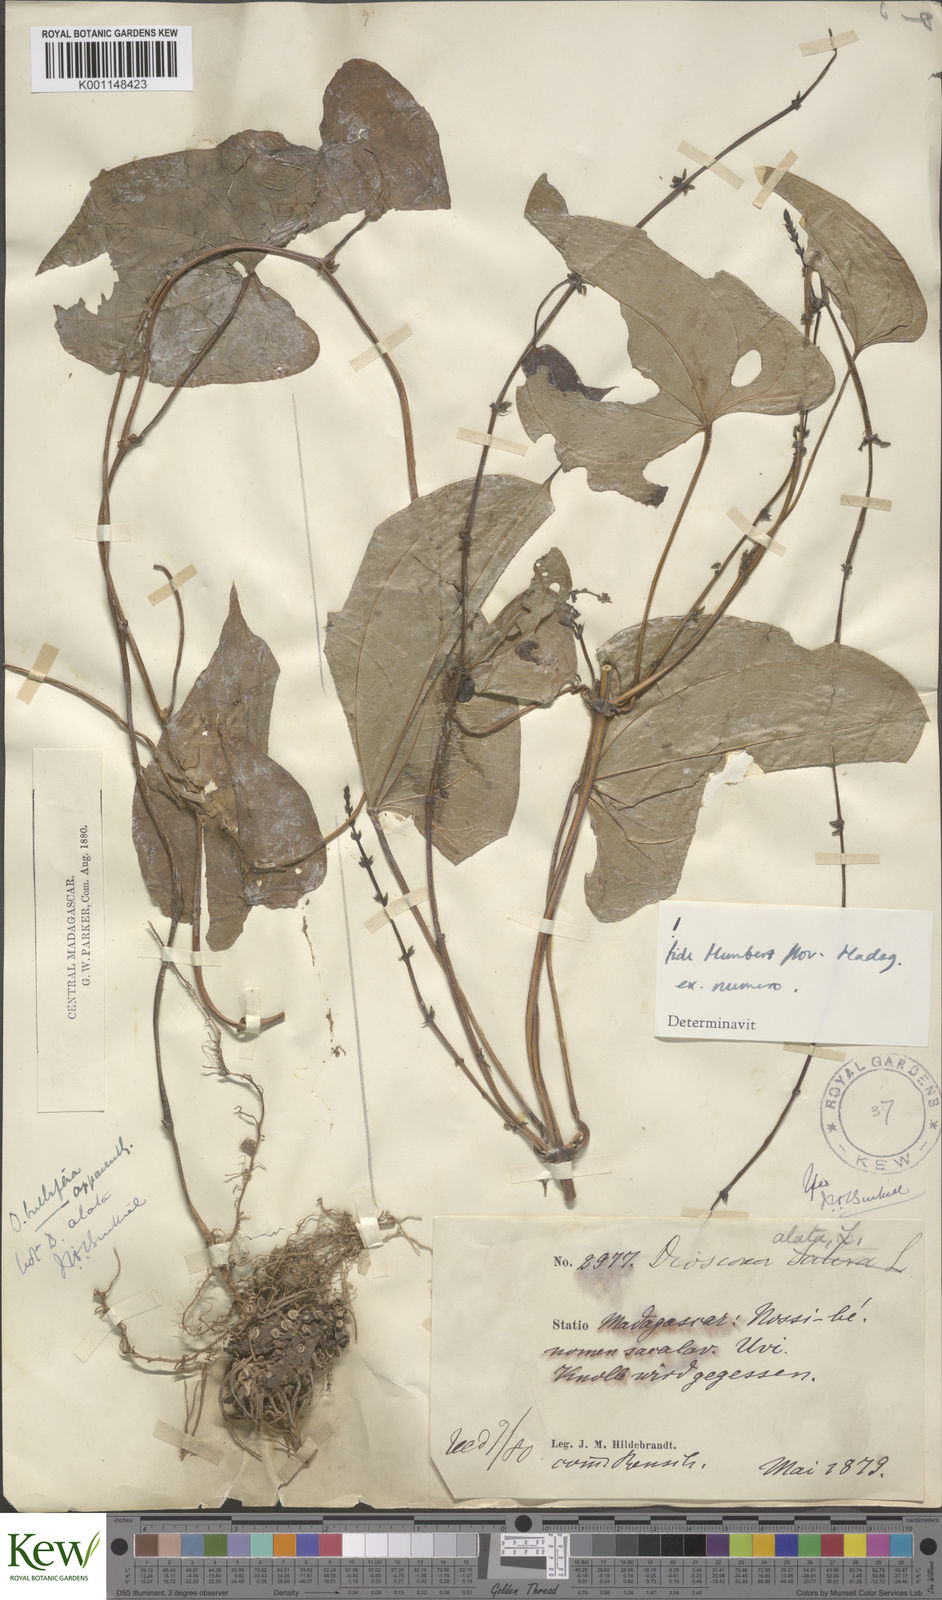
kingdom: Plantae
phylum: Tracheophyta
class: Liliopsida
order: Dioscoreales
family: Dioscoreaceae
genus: Dioscorea
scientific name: Dioscorea alata
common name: Water yam
